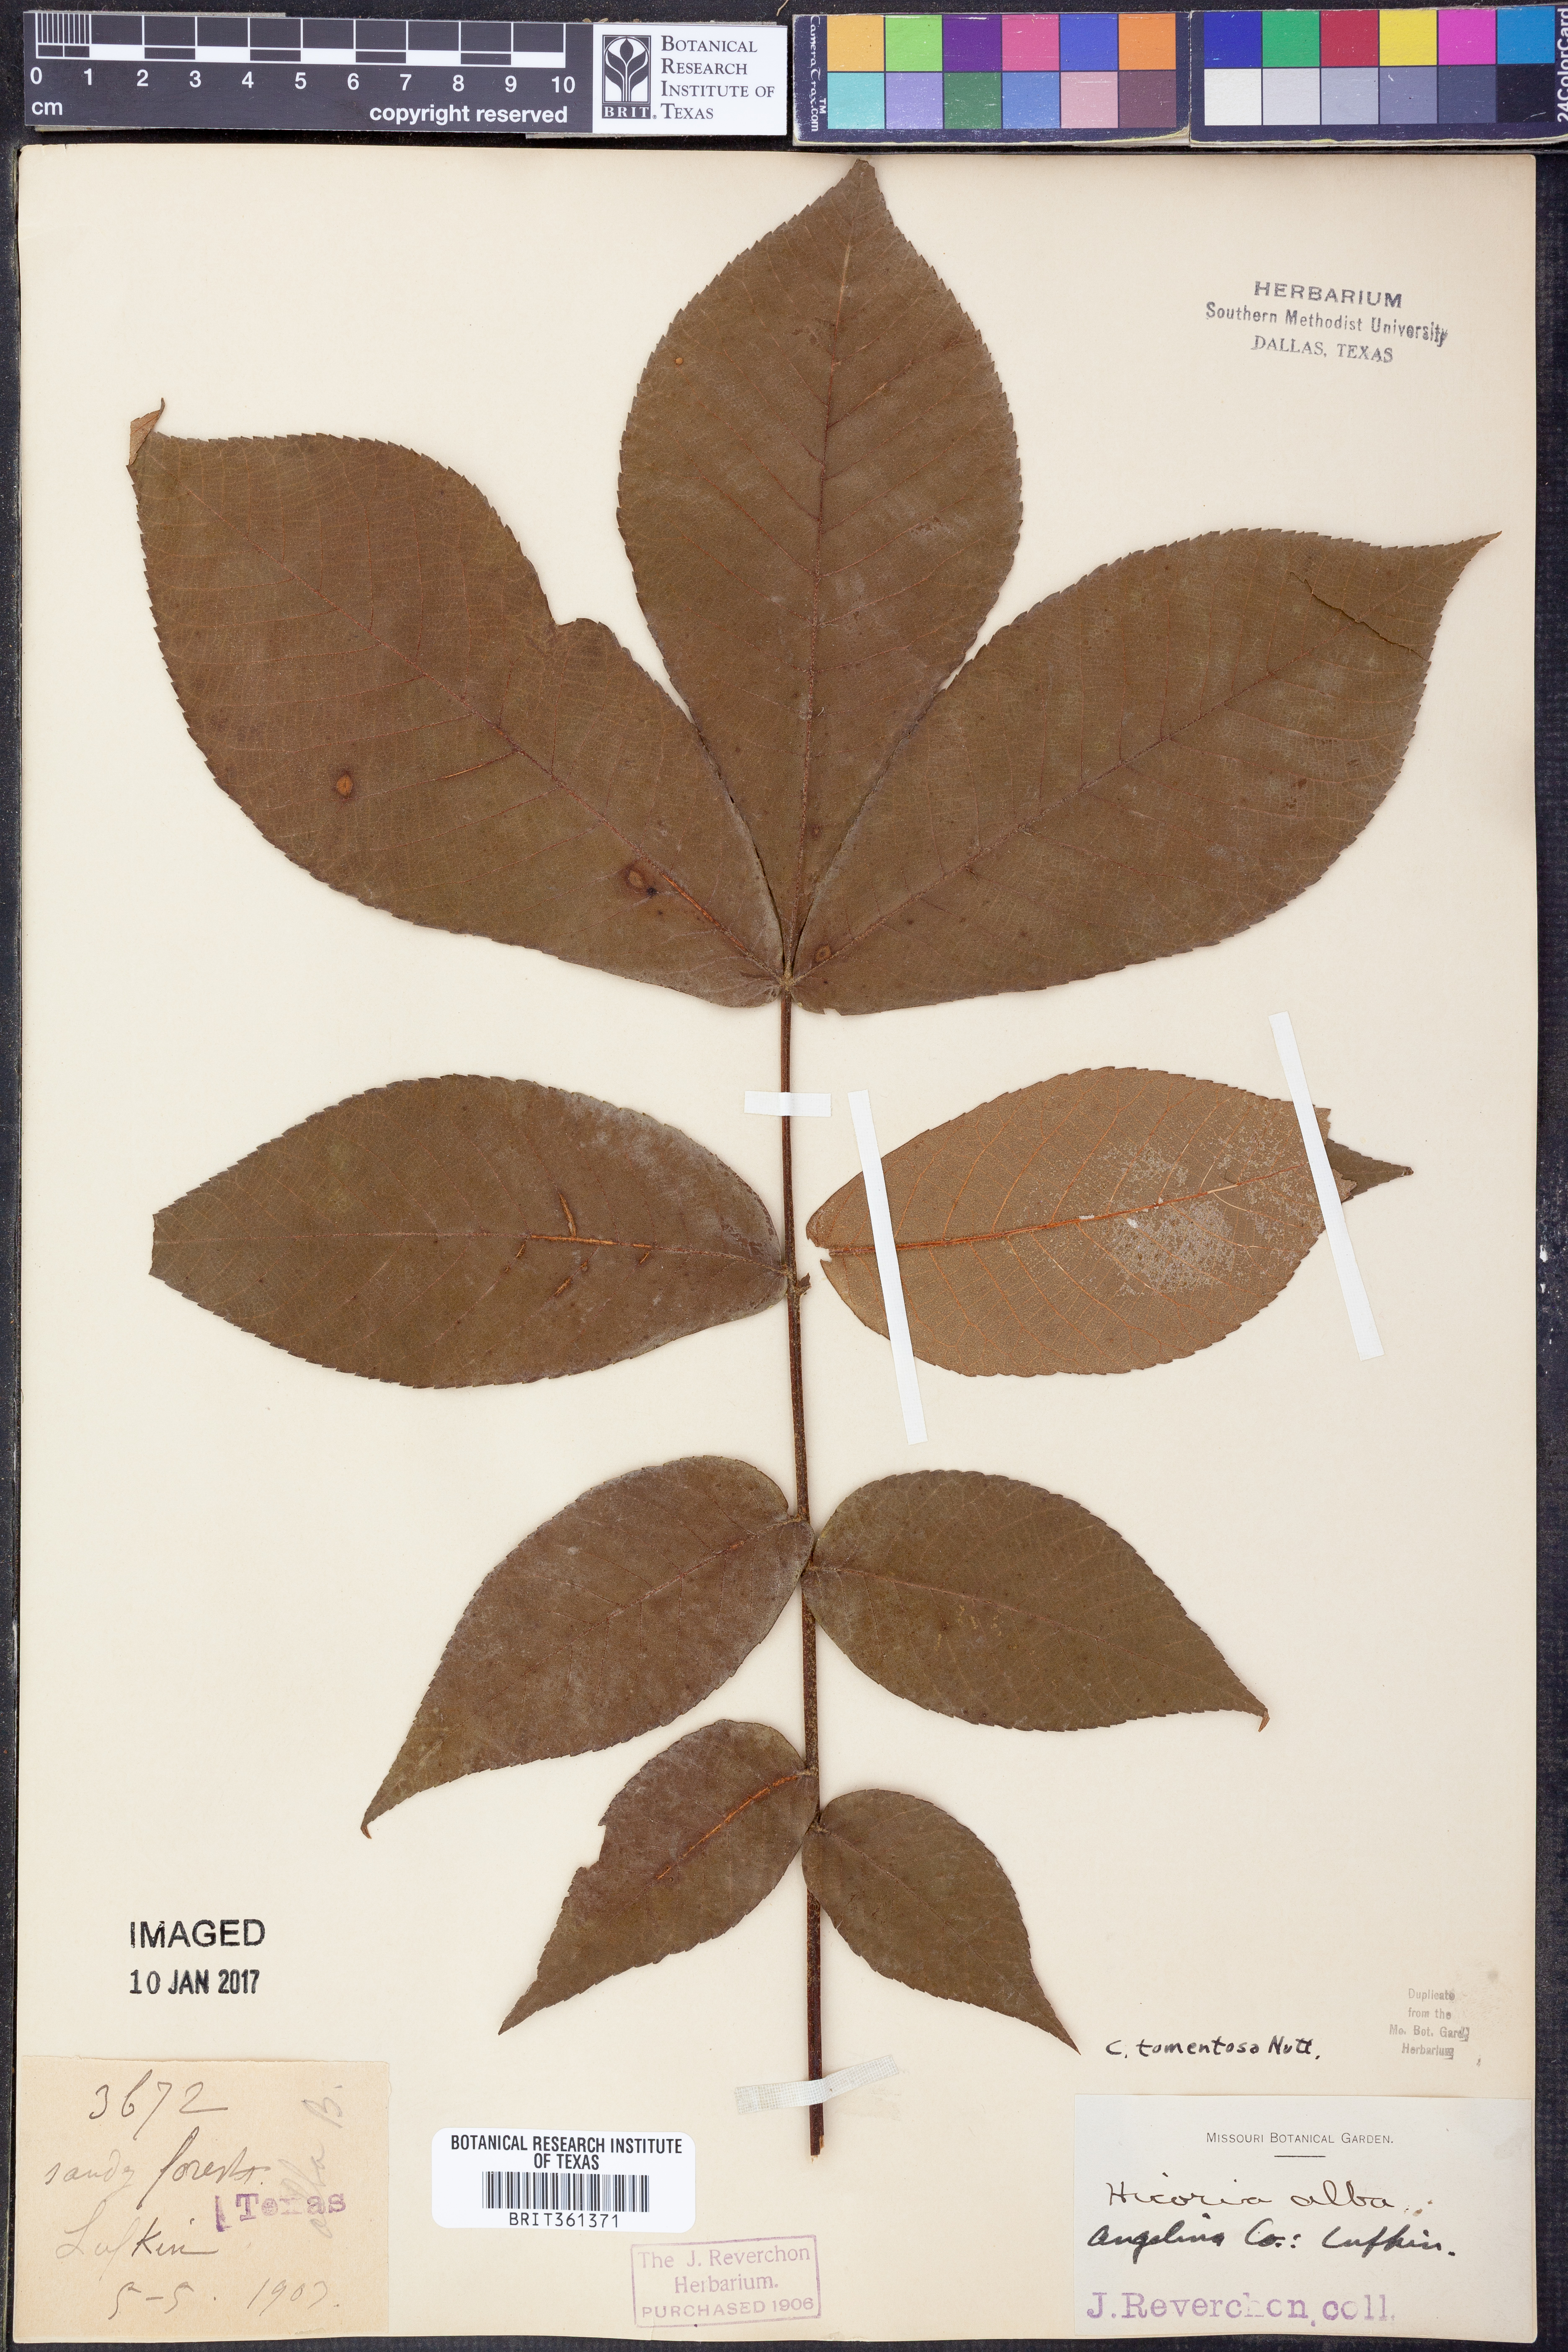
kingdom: Plantae
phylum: Tracheophyta
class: Magnoliopsida
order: Fagales
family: Juglandaceae
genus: Carya
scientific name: Carya alba
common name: Mockernut hickory
